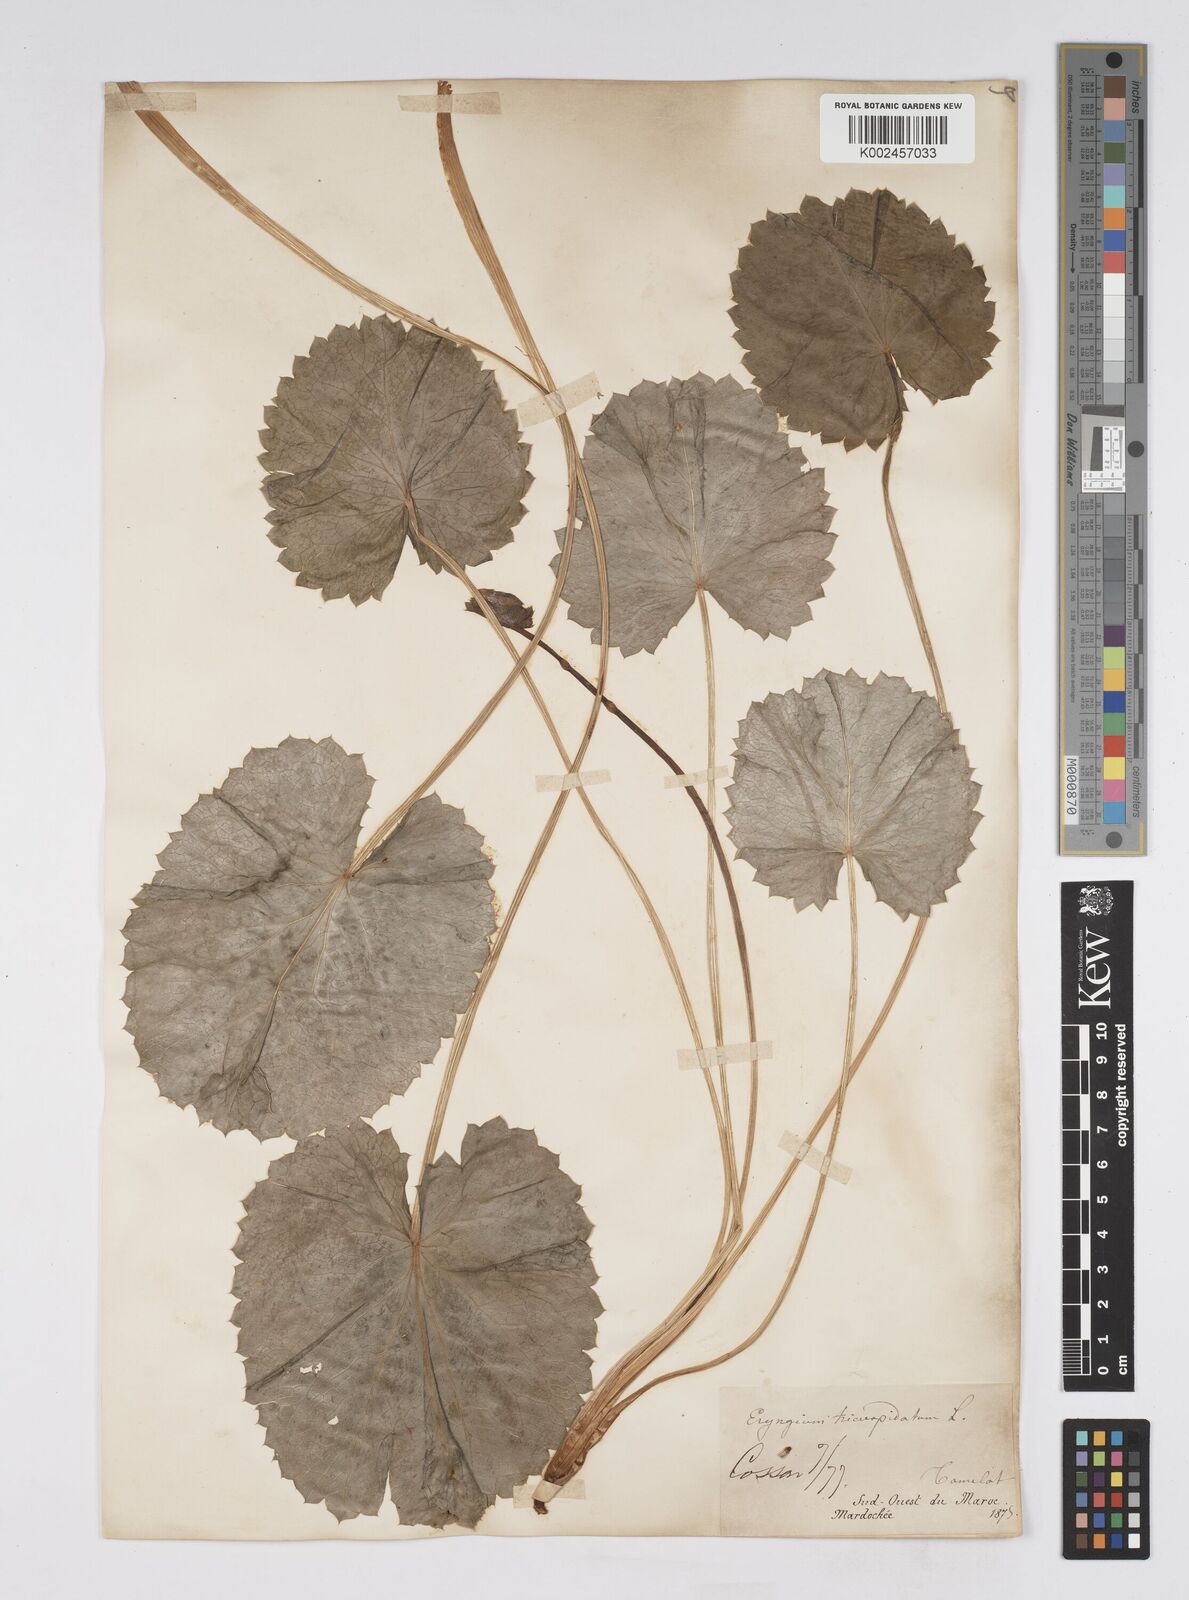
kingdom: Plantae
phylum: Tracheophyta
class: Magnoliopsida
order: Apiales
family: Apiaceae
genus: Eryngium
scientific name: Eryngium tricuspidatum
